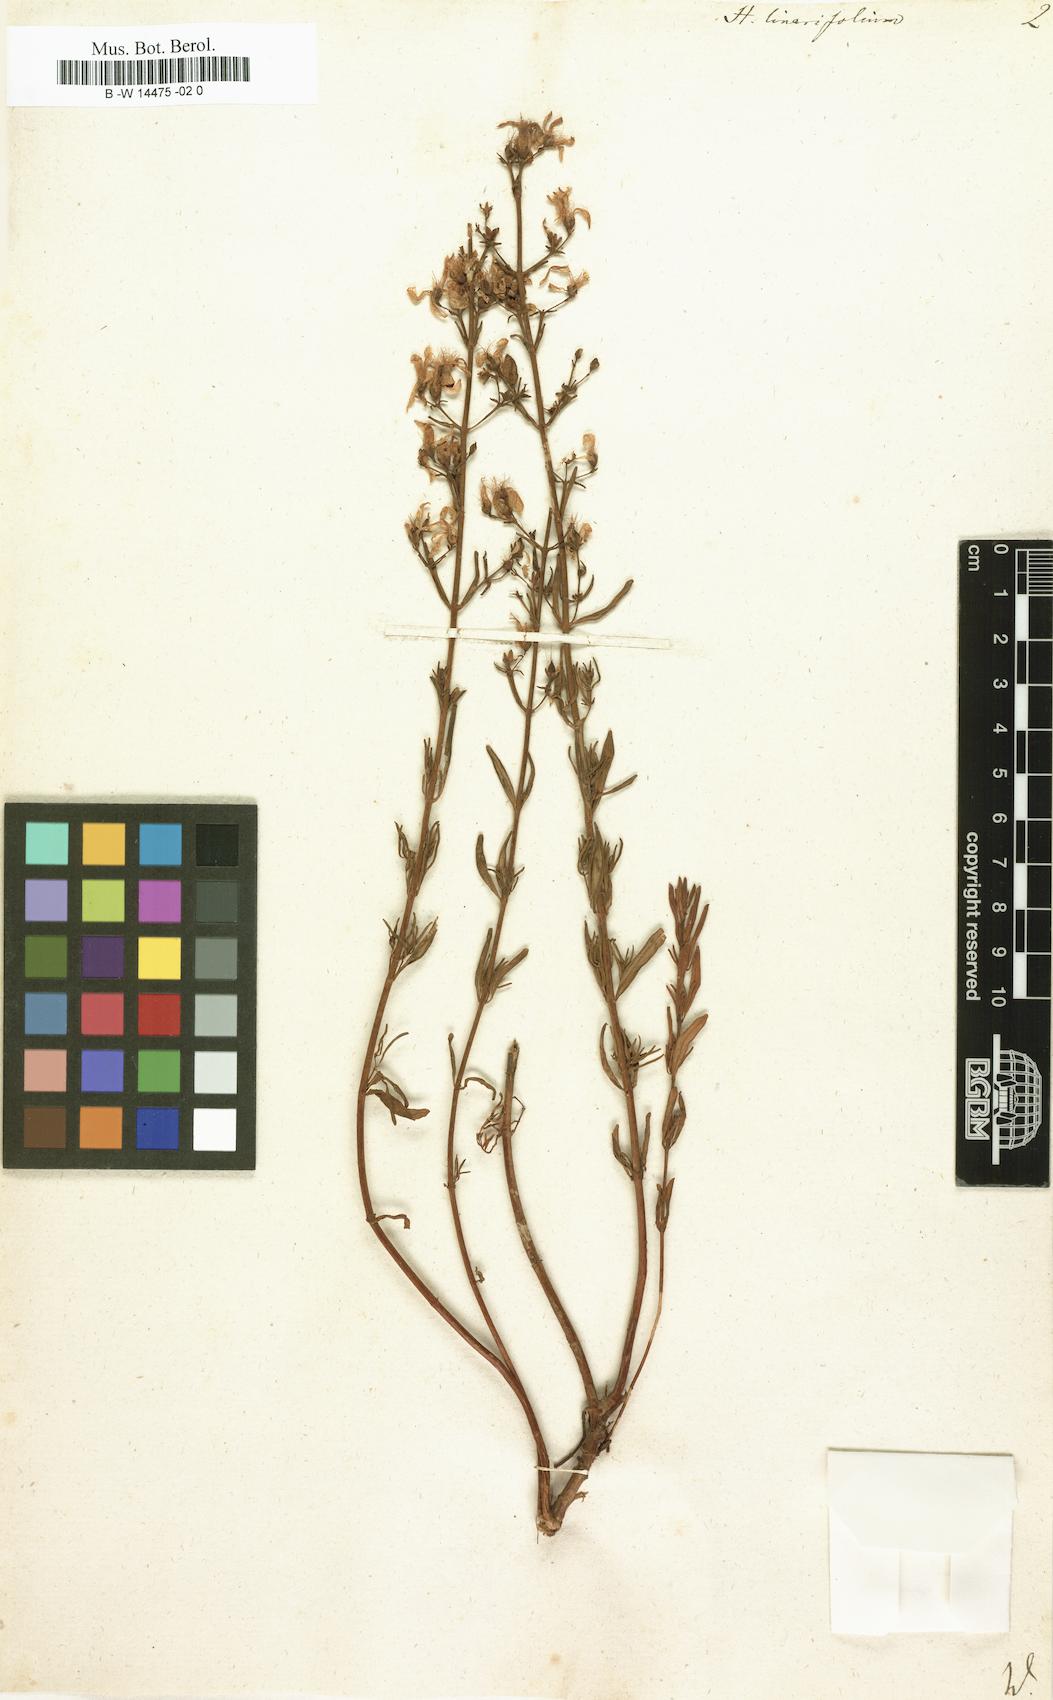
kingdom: Plantae
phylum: Tracheophyta
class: Magnoliopsida
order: Malpighiales
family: Hypericaceae
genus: Hypericum
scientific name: Hypericum linariifolium
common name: Toadflax-leaved st. john's-wort
